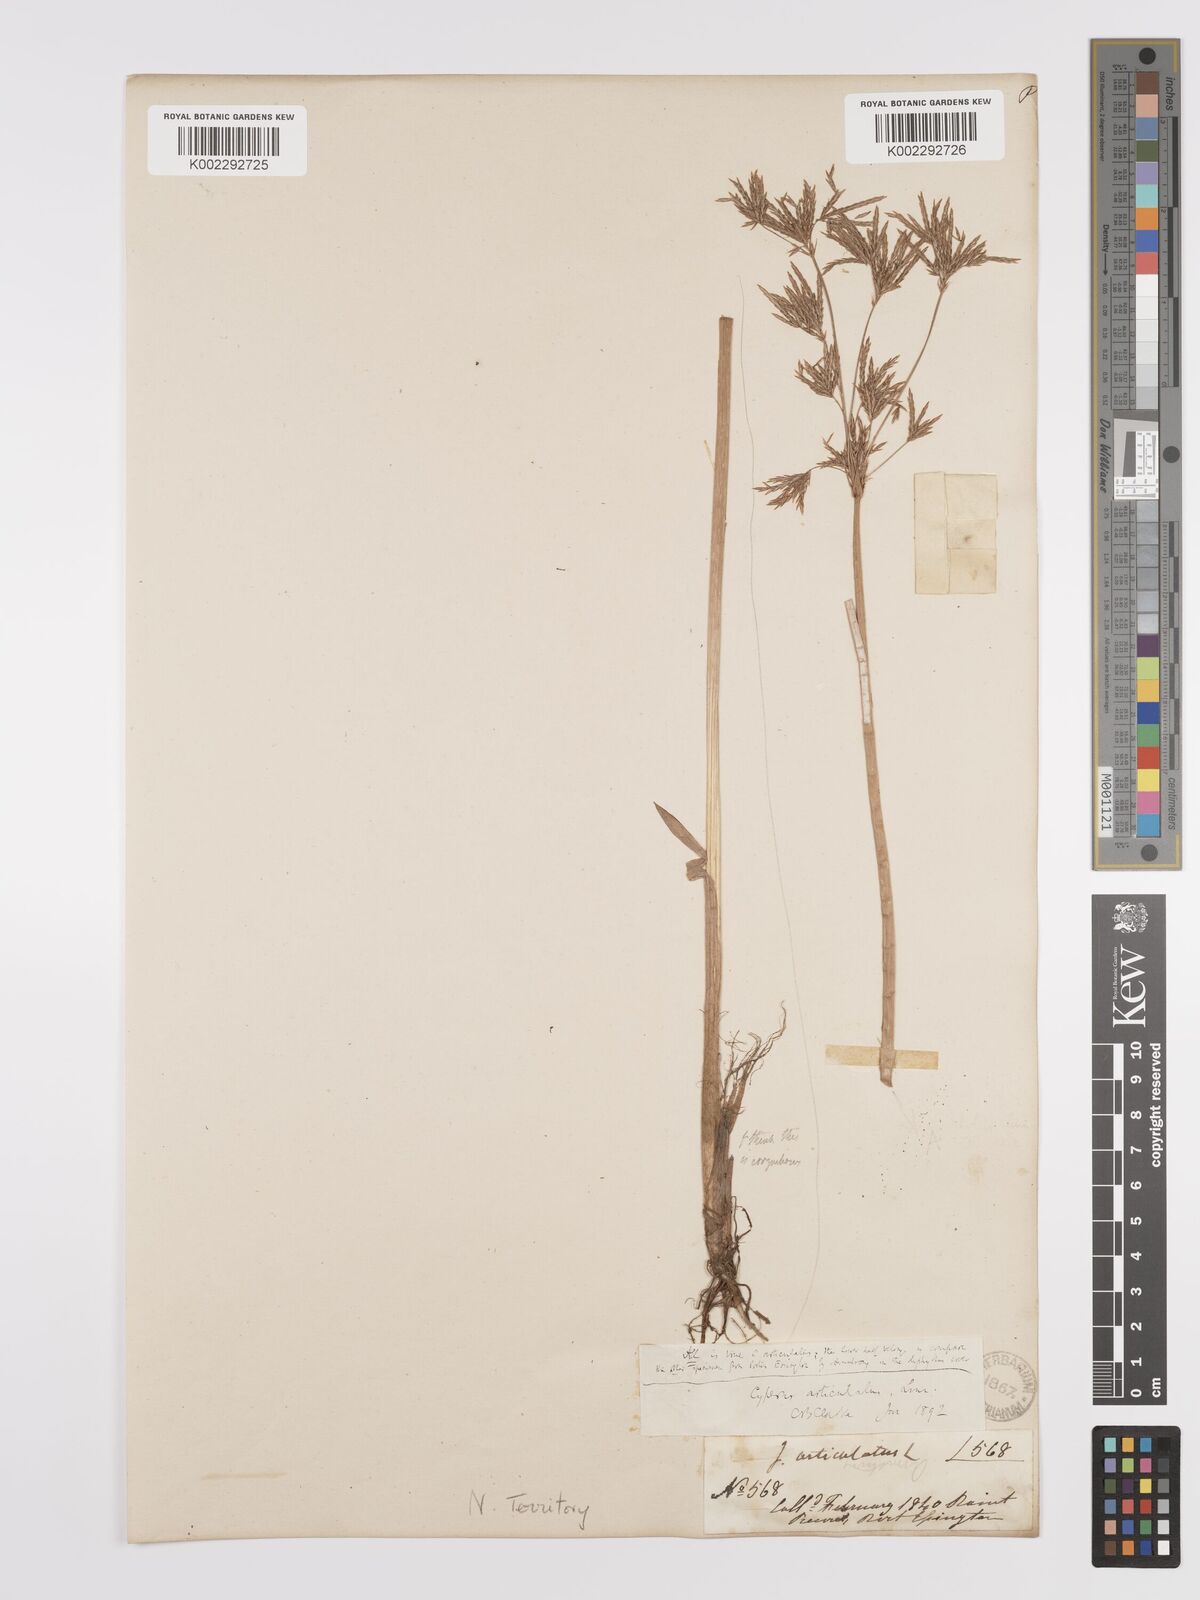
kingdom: Plantae
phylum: Tracheophyta
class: Liliopsida
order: Poales
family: Cyperaceae
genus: Cyperus
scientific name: Cyperus corymbosus
